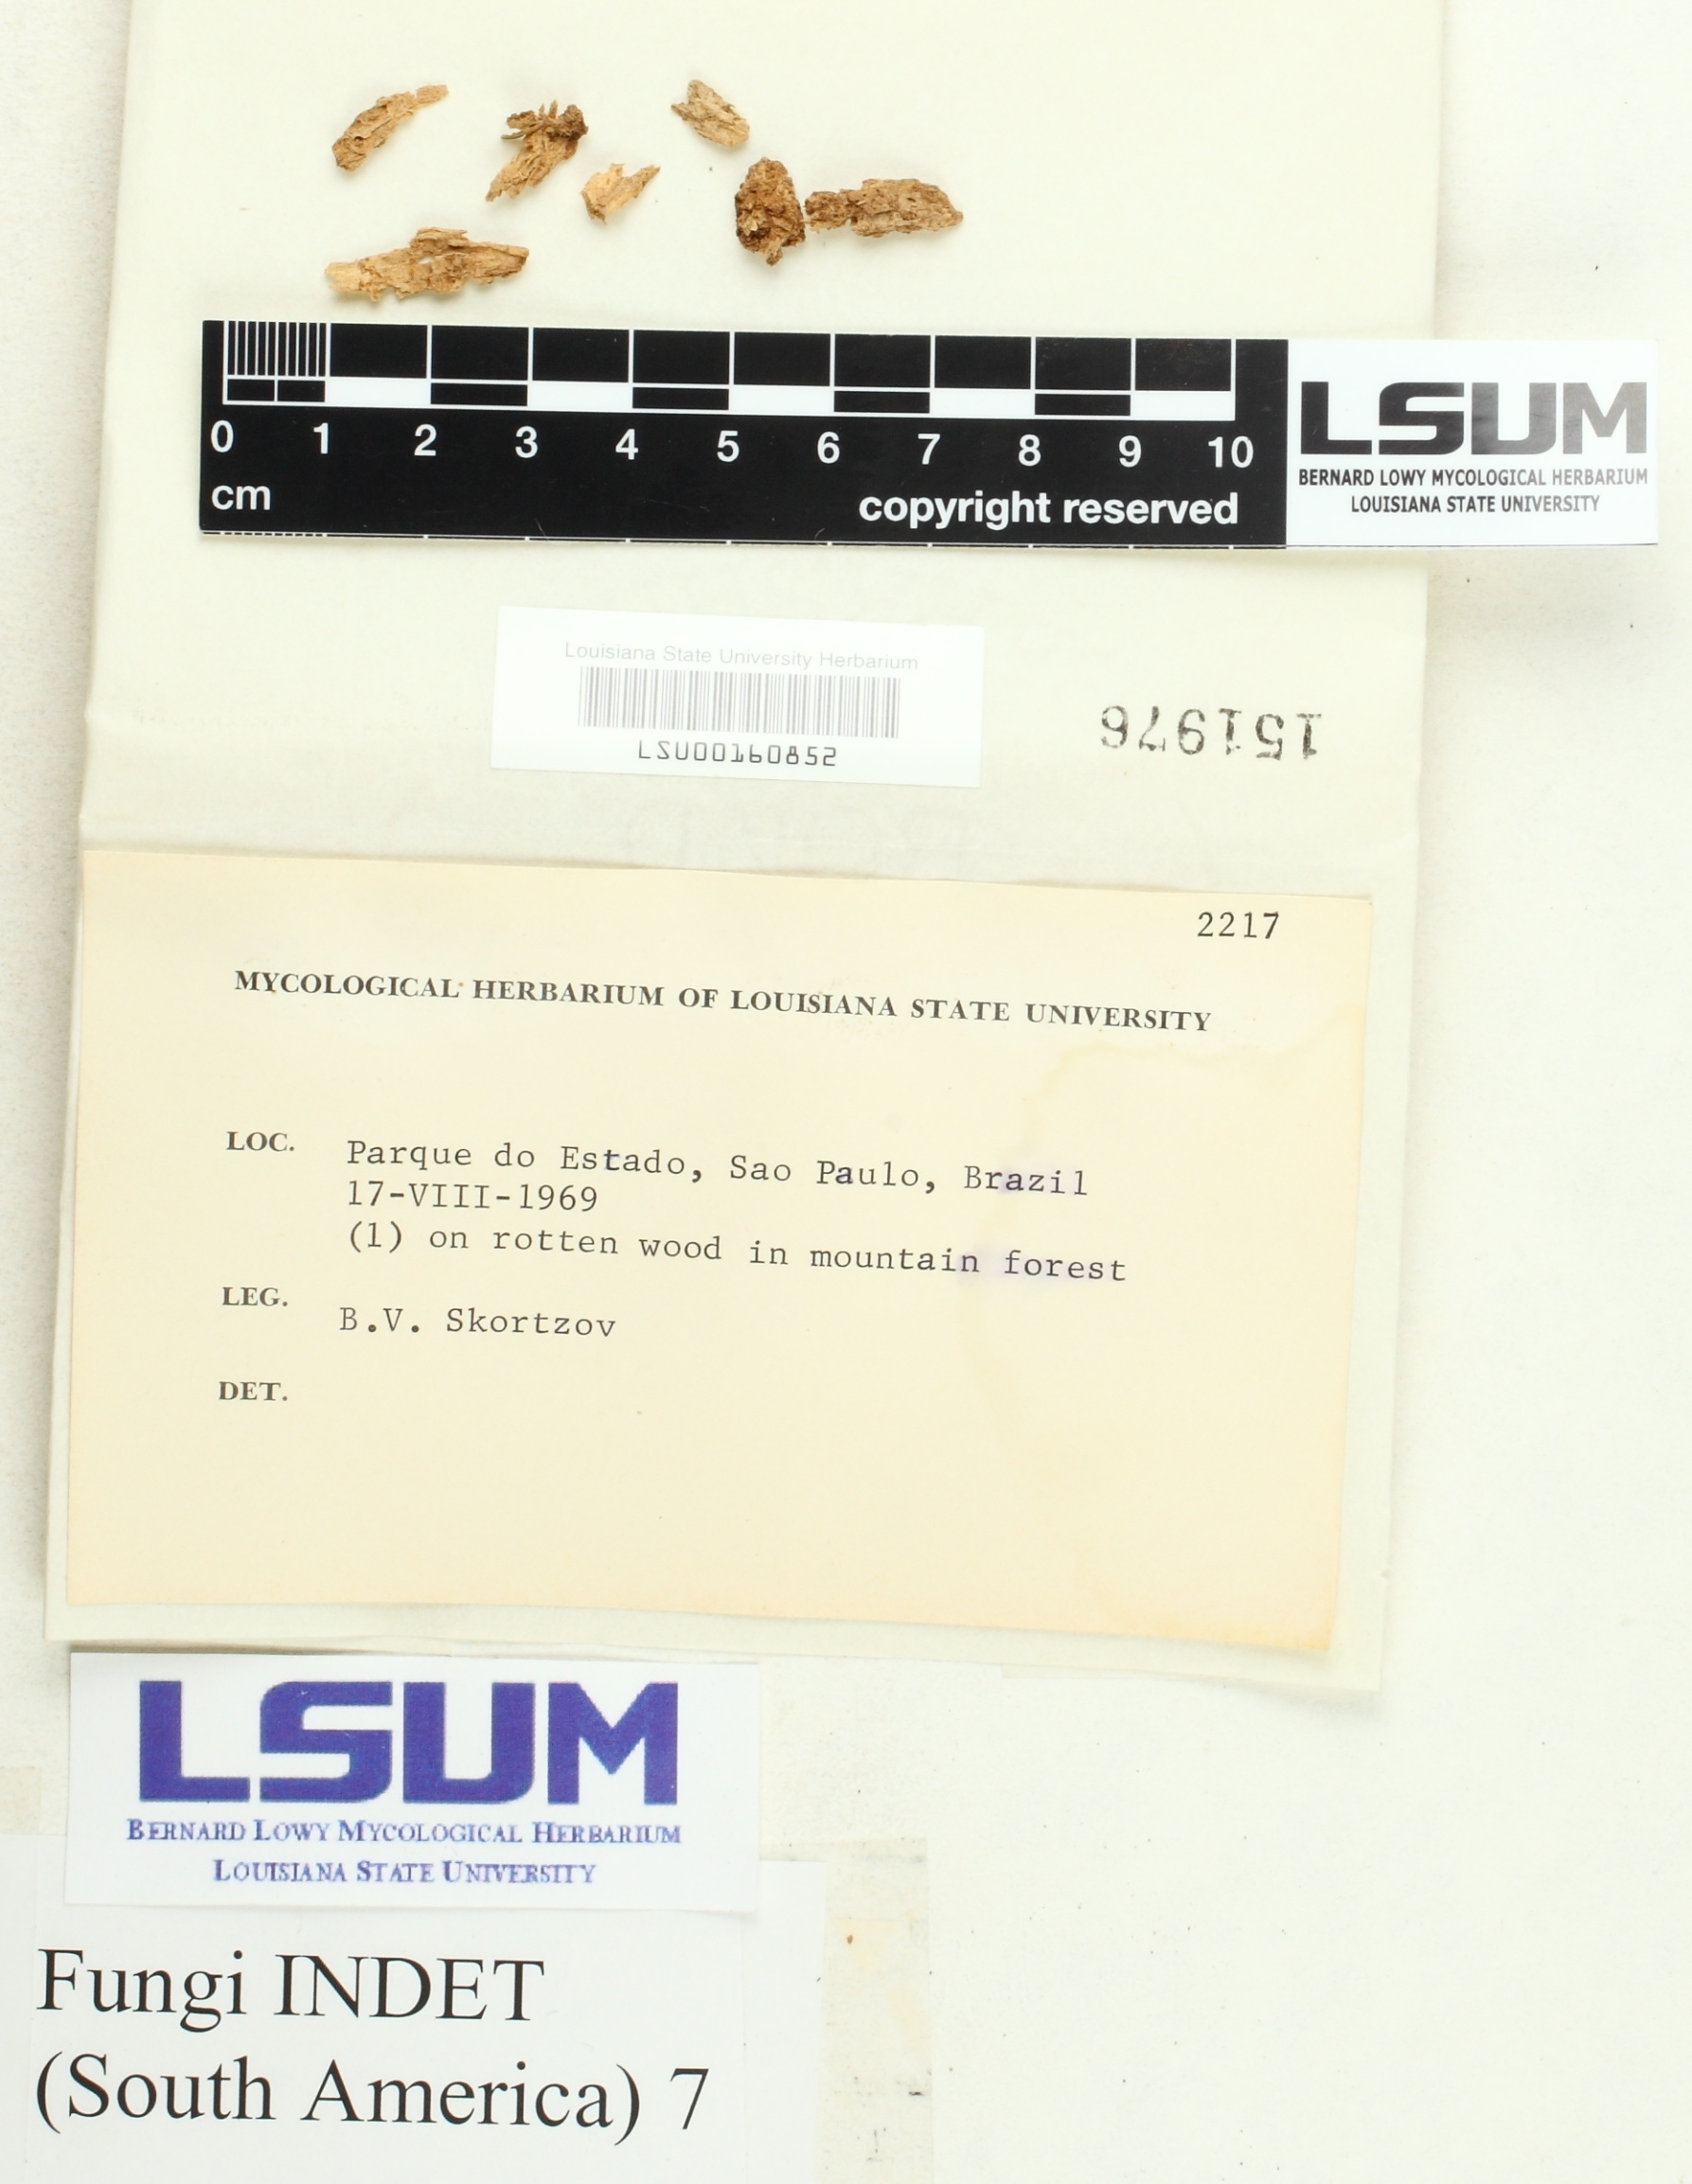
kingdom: Fungi
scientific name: Fungi
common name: Fungi
